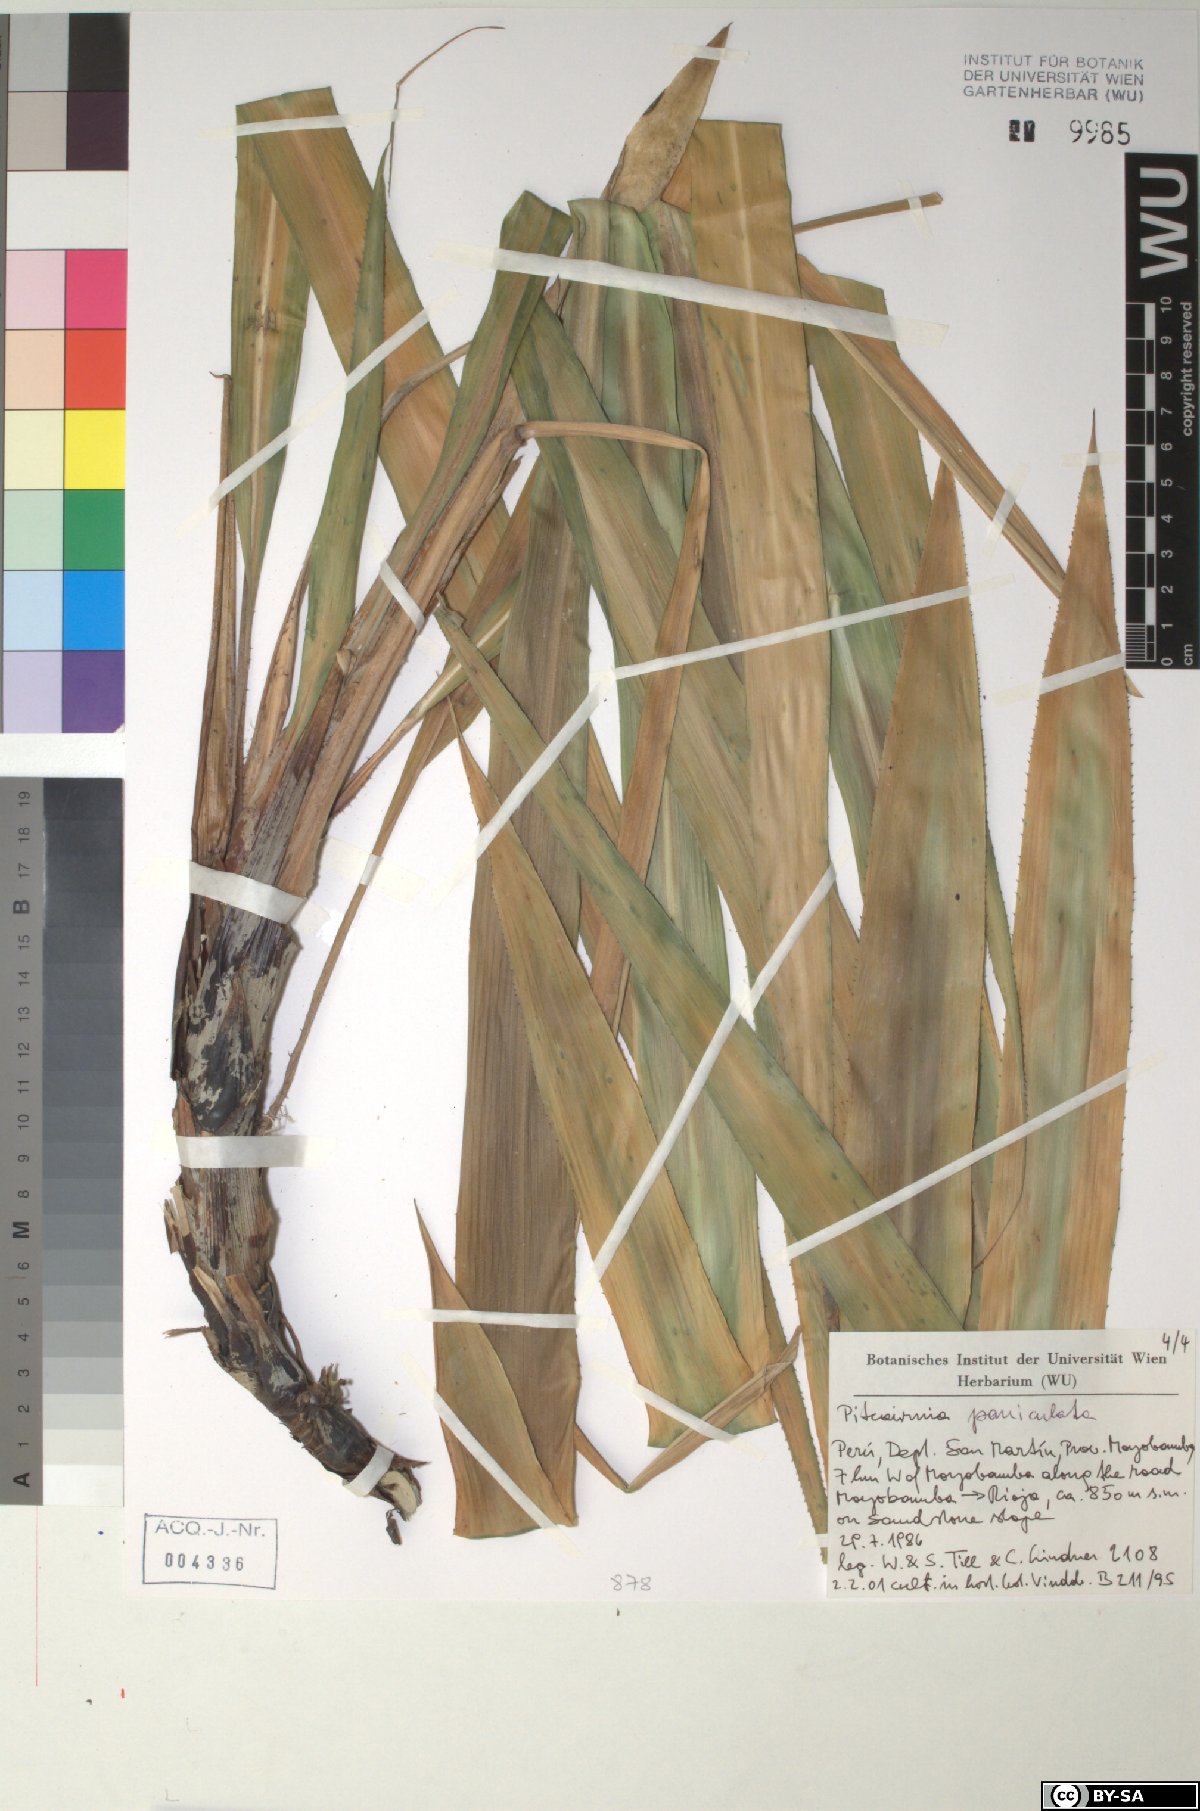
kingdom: Plantae
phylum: Tracheophyta
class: Liliopsida
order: Poales
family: Bromeliaceae
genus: Pitcairnia
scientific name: Pitcairnia paniculata
